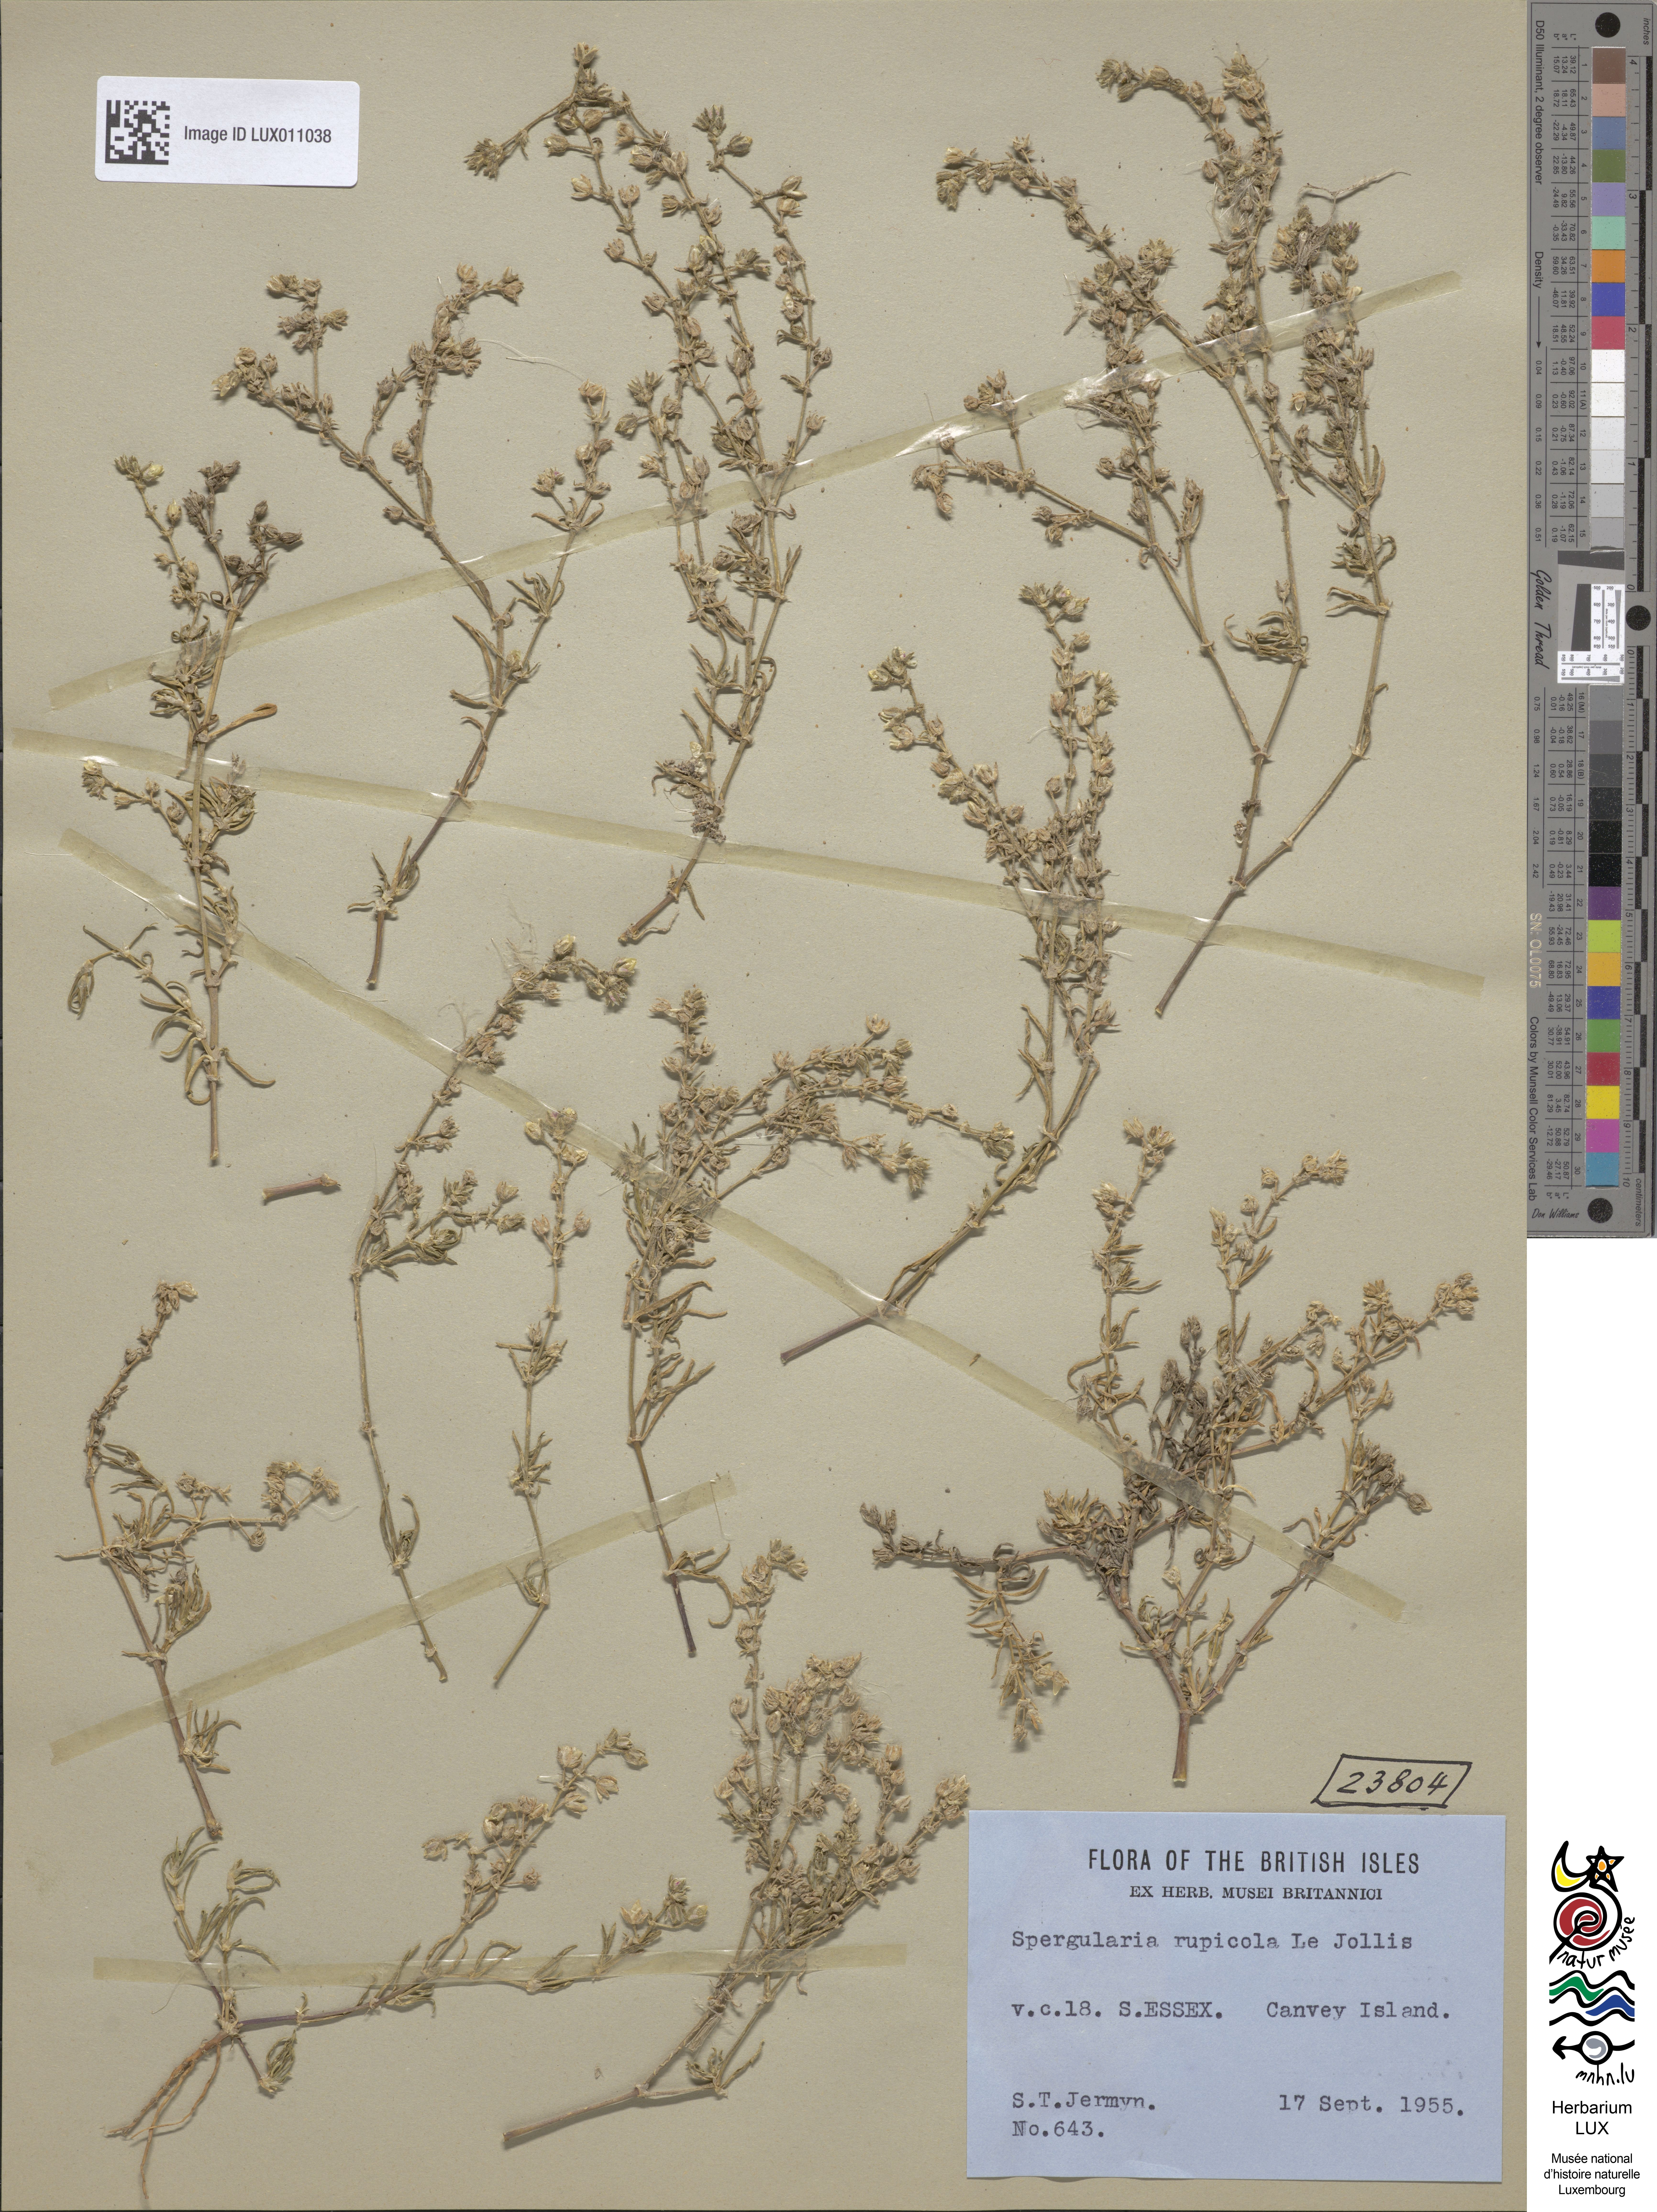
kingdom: Plantae
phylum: Tracheophyta
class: Magnoliopsida
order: Caryophyllales
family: Caryophyllaceae
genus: Spergularia
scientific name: Spergularia rupicola
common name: Cliff sand-spurrey
